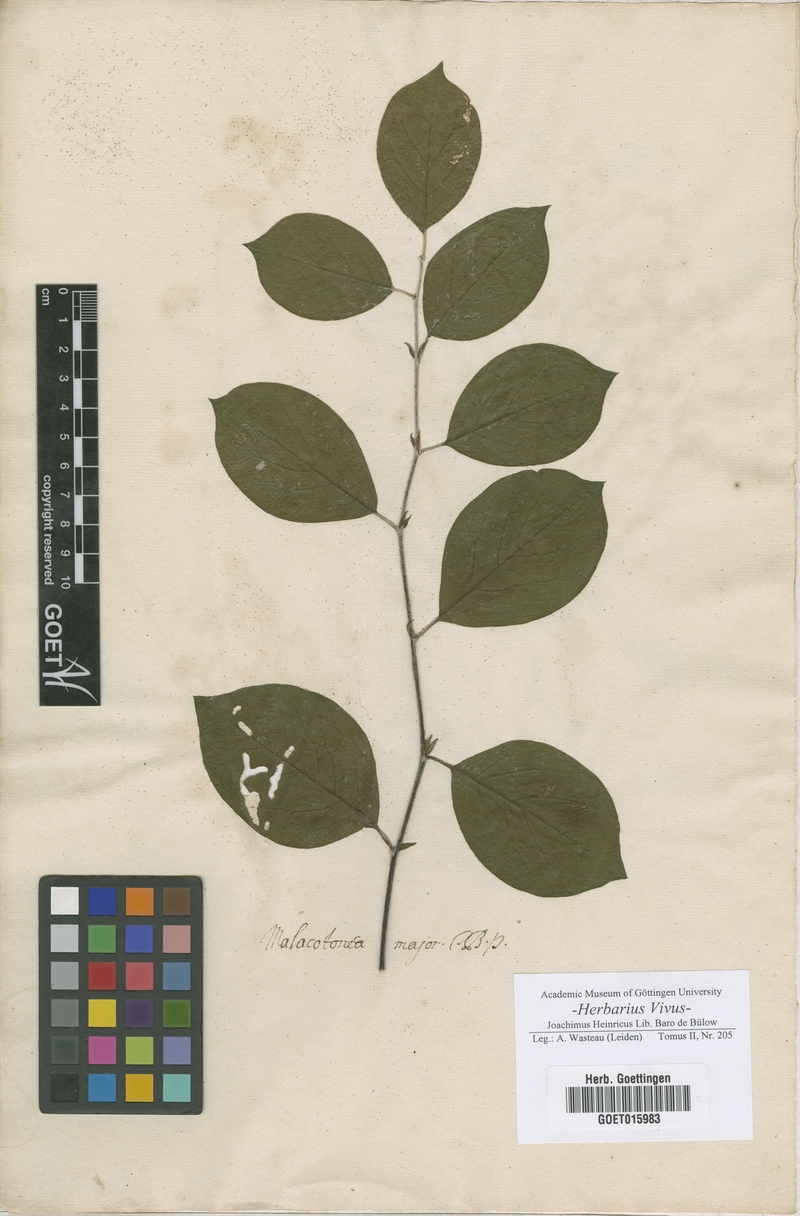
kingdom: Plantae
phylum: Tracheophyta
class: Magnoliopsida
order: Rosales
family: Rosaceae
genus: Cydonia
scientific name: Cydonia oblonga
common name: Quince
